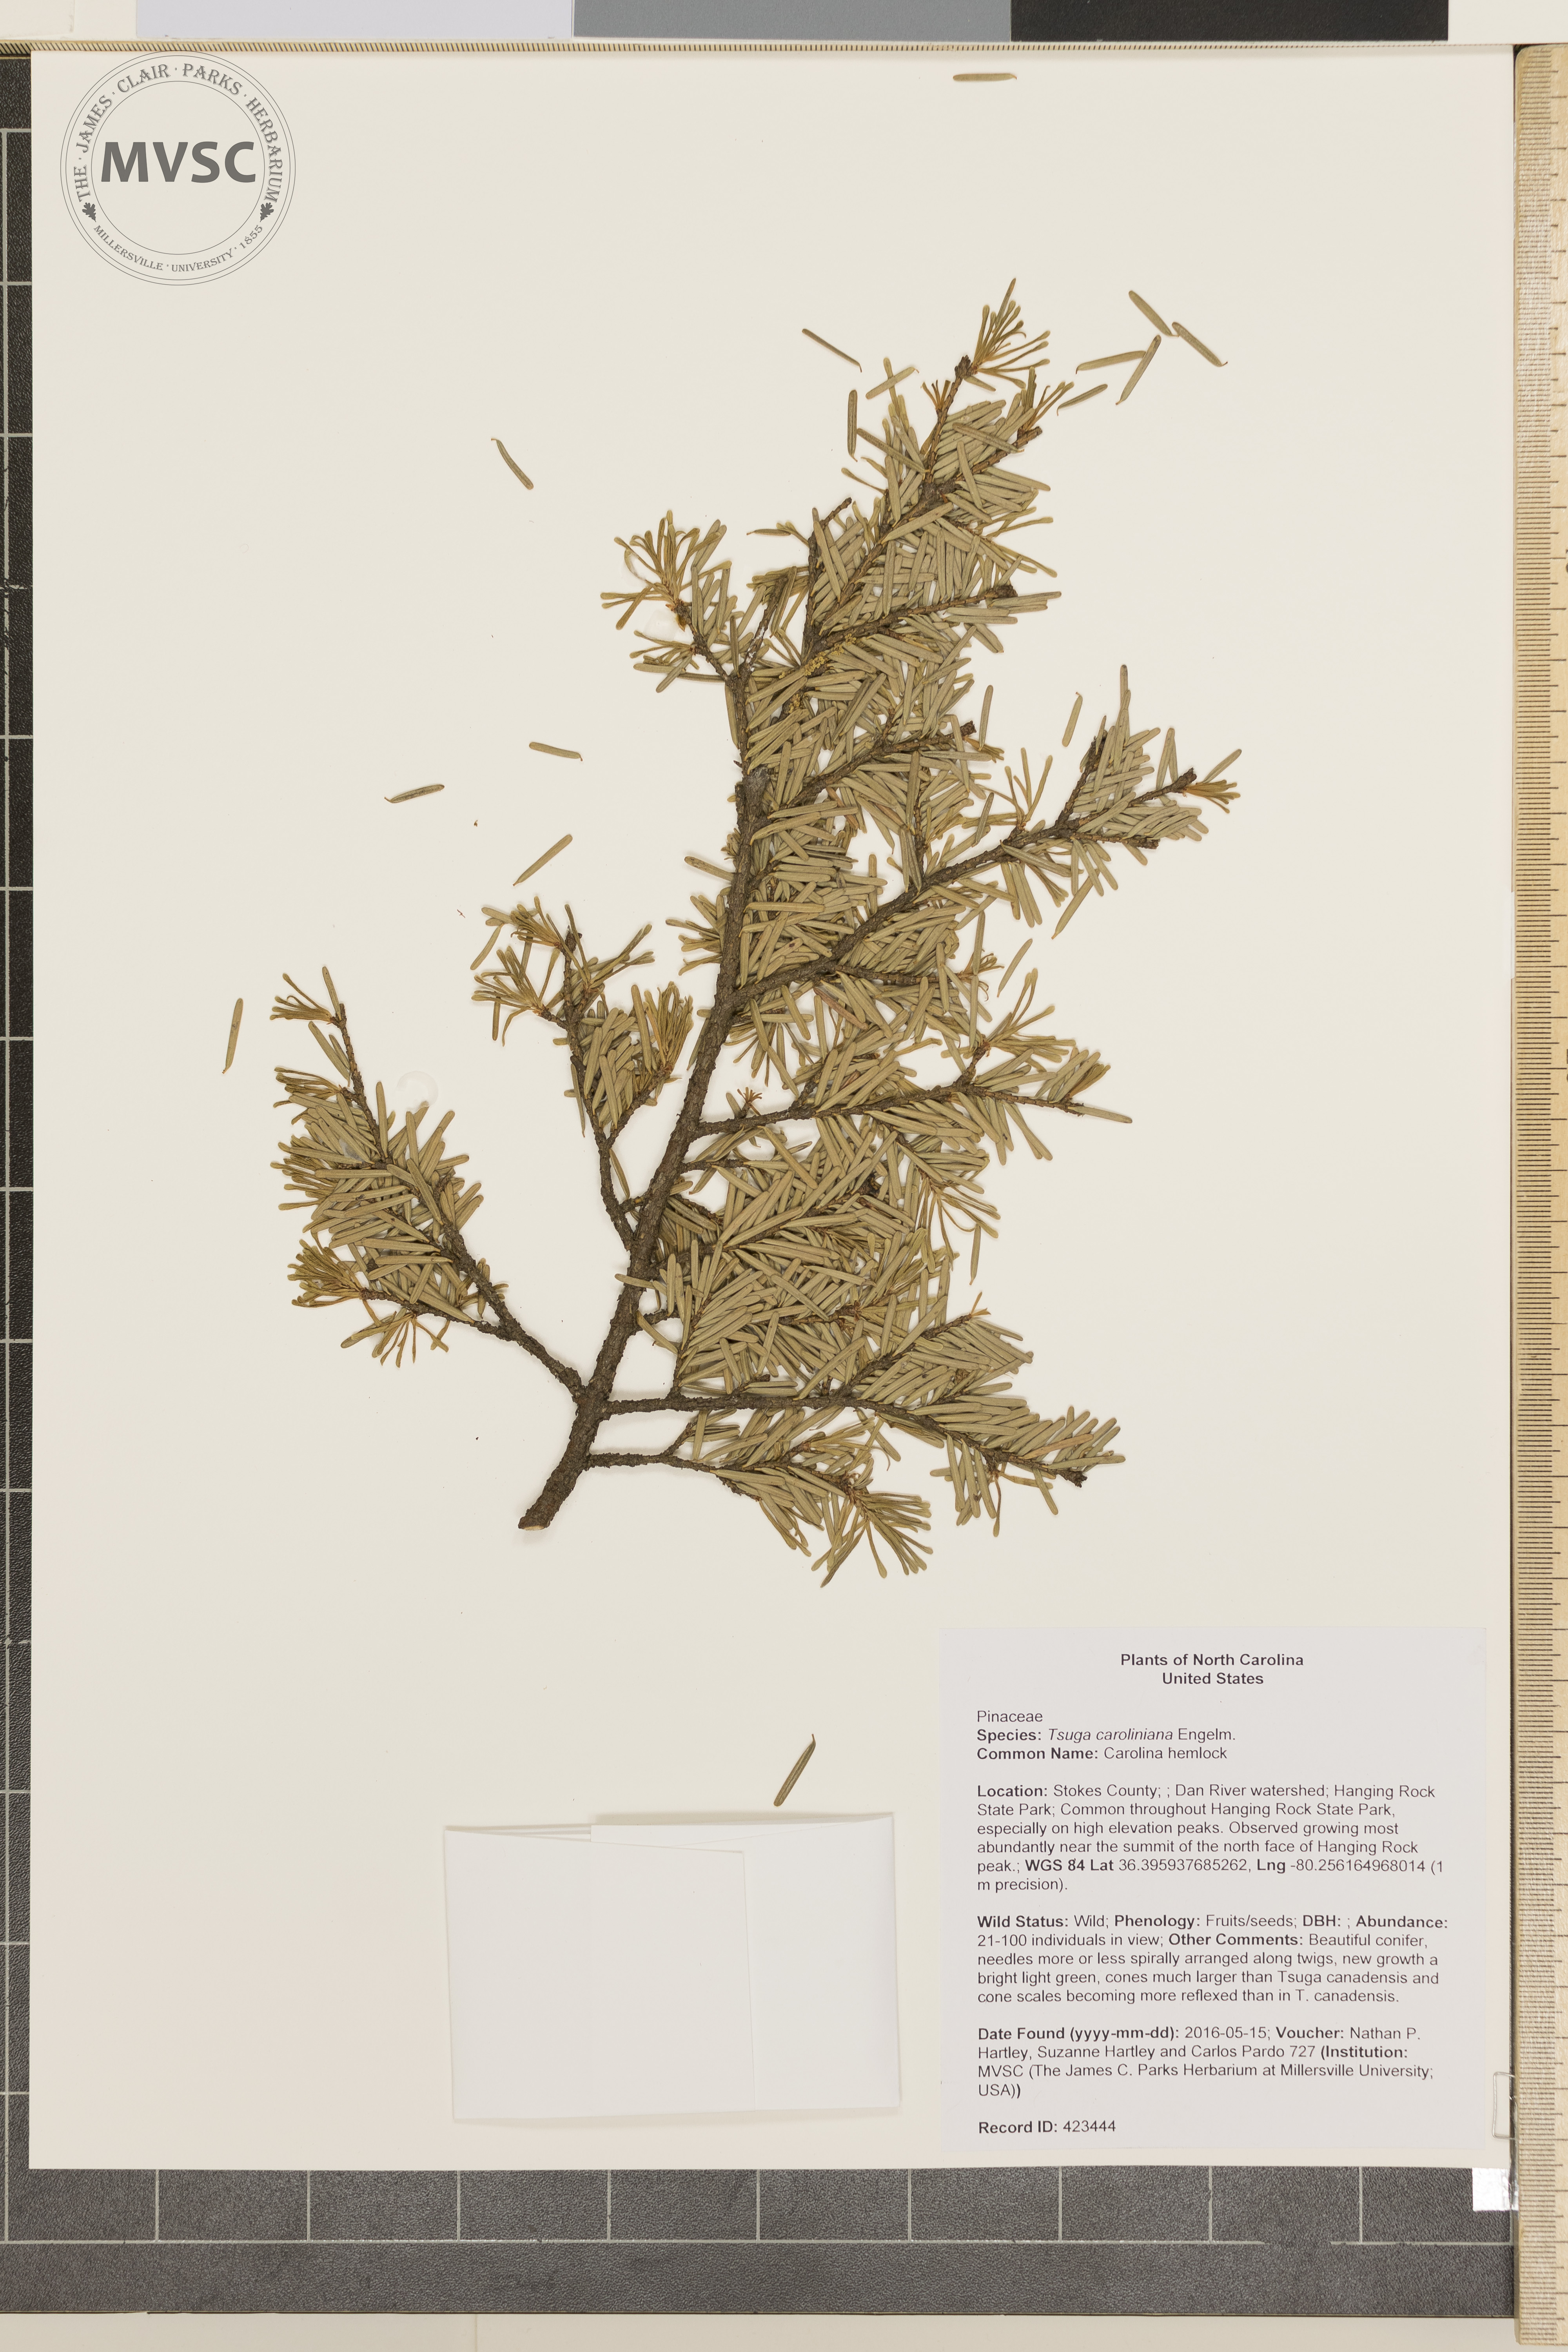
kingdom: Plantae
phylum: Tracheophyta
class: Pinopsida
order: Pinales
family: Pinaceae
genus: Tsuga
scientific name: Tsuga caroliniana
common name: Carolina hemlock
